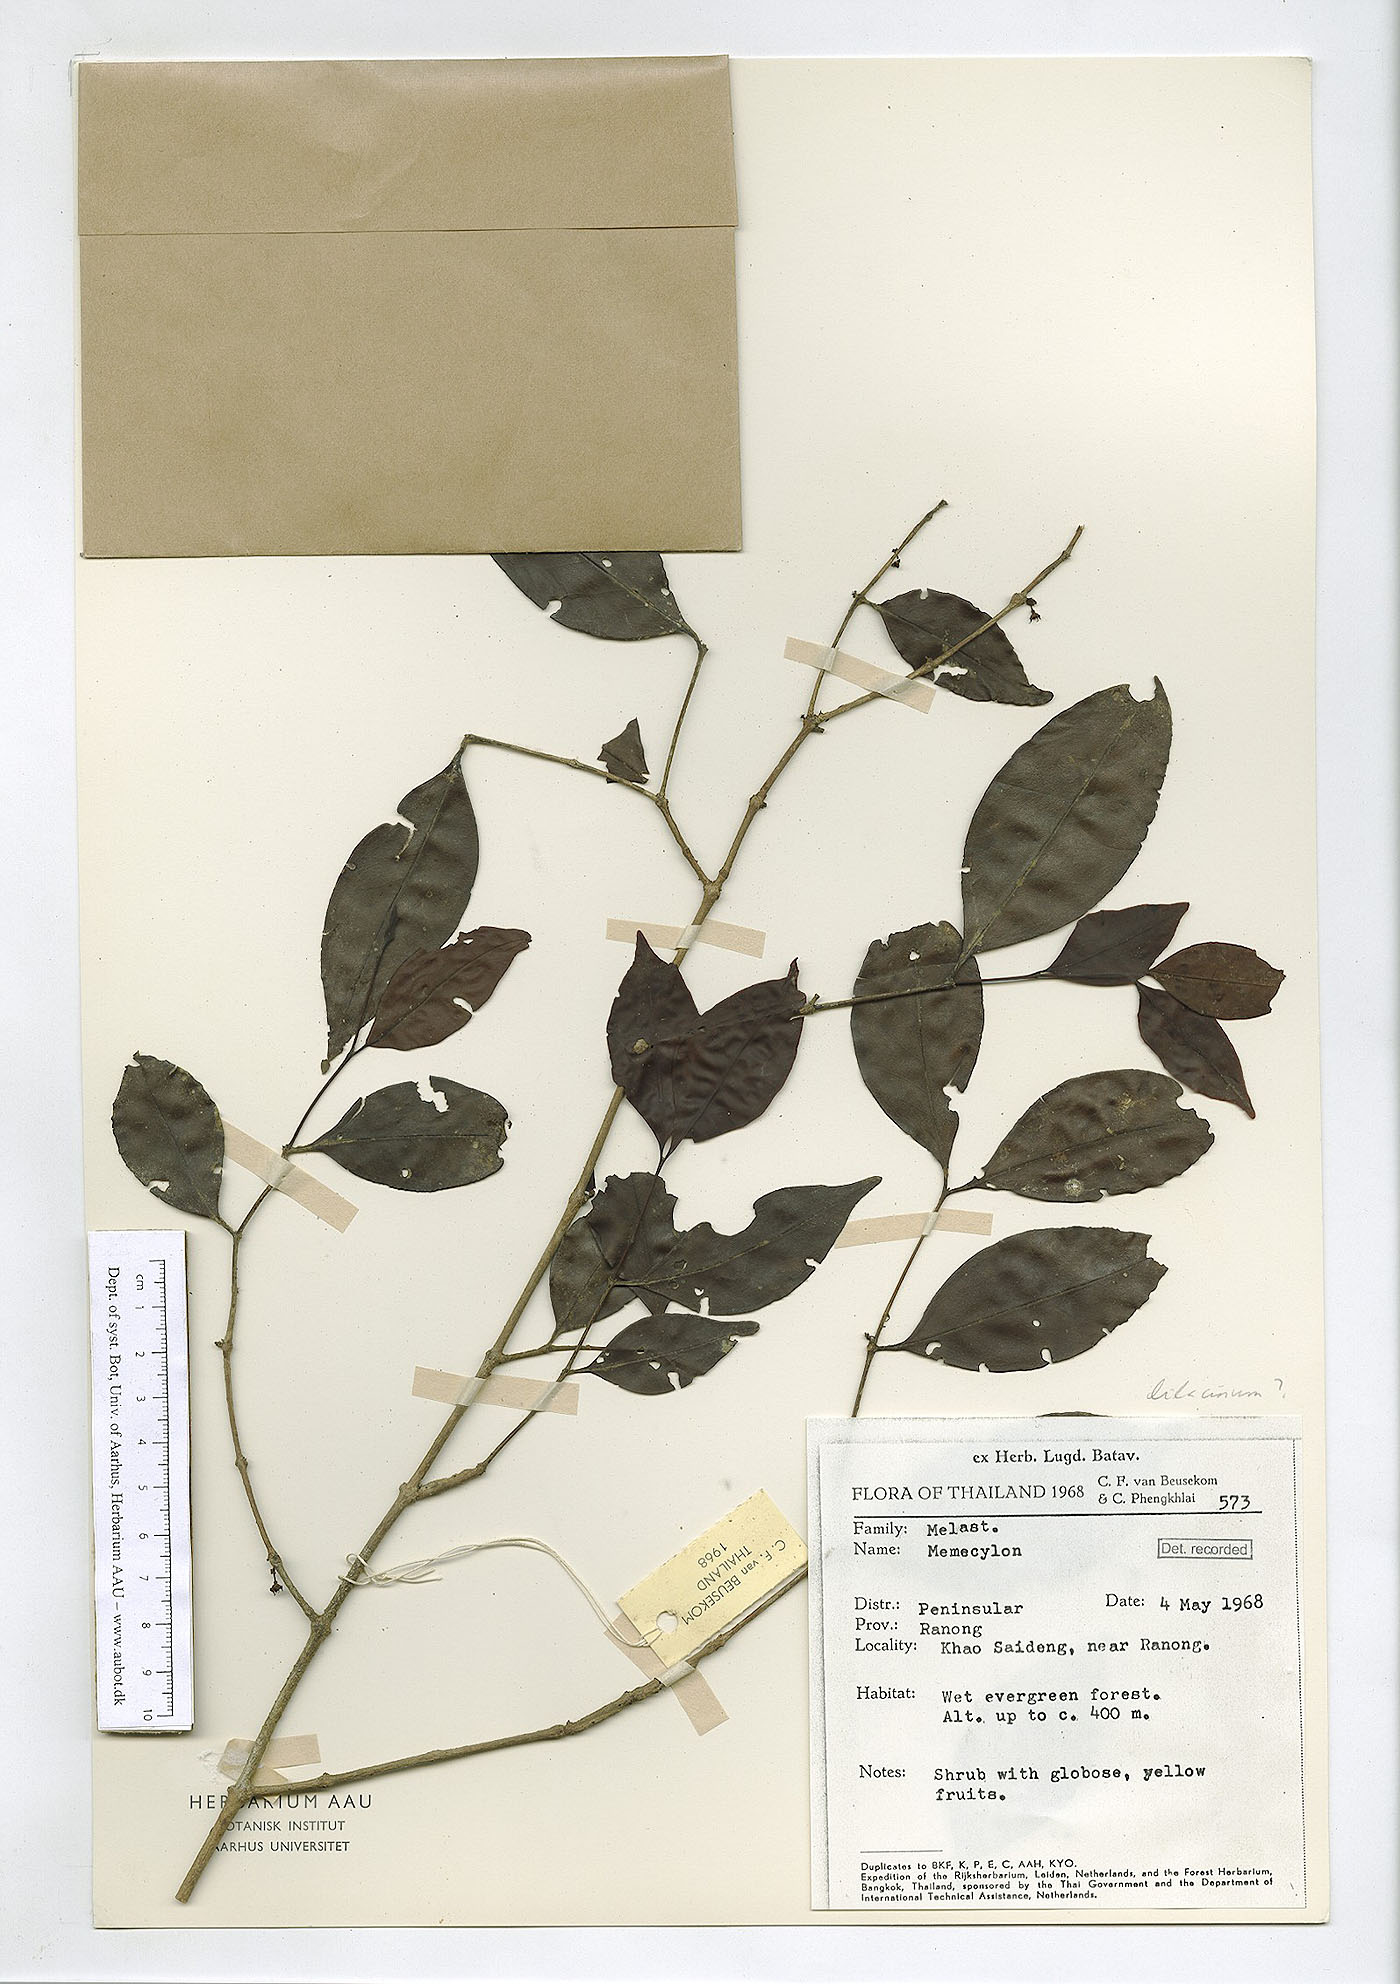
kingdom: Plantae
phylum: Tracheophyta
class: Magnoliopsida
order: Myrtales
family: Melastomataceae
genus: Memecylon
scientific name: Memecylon lilacinum
